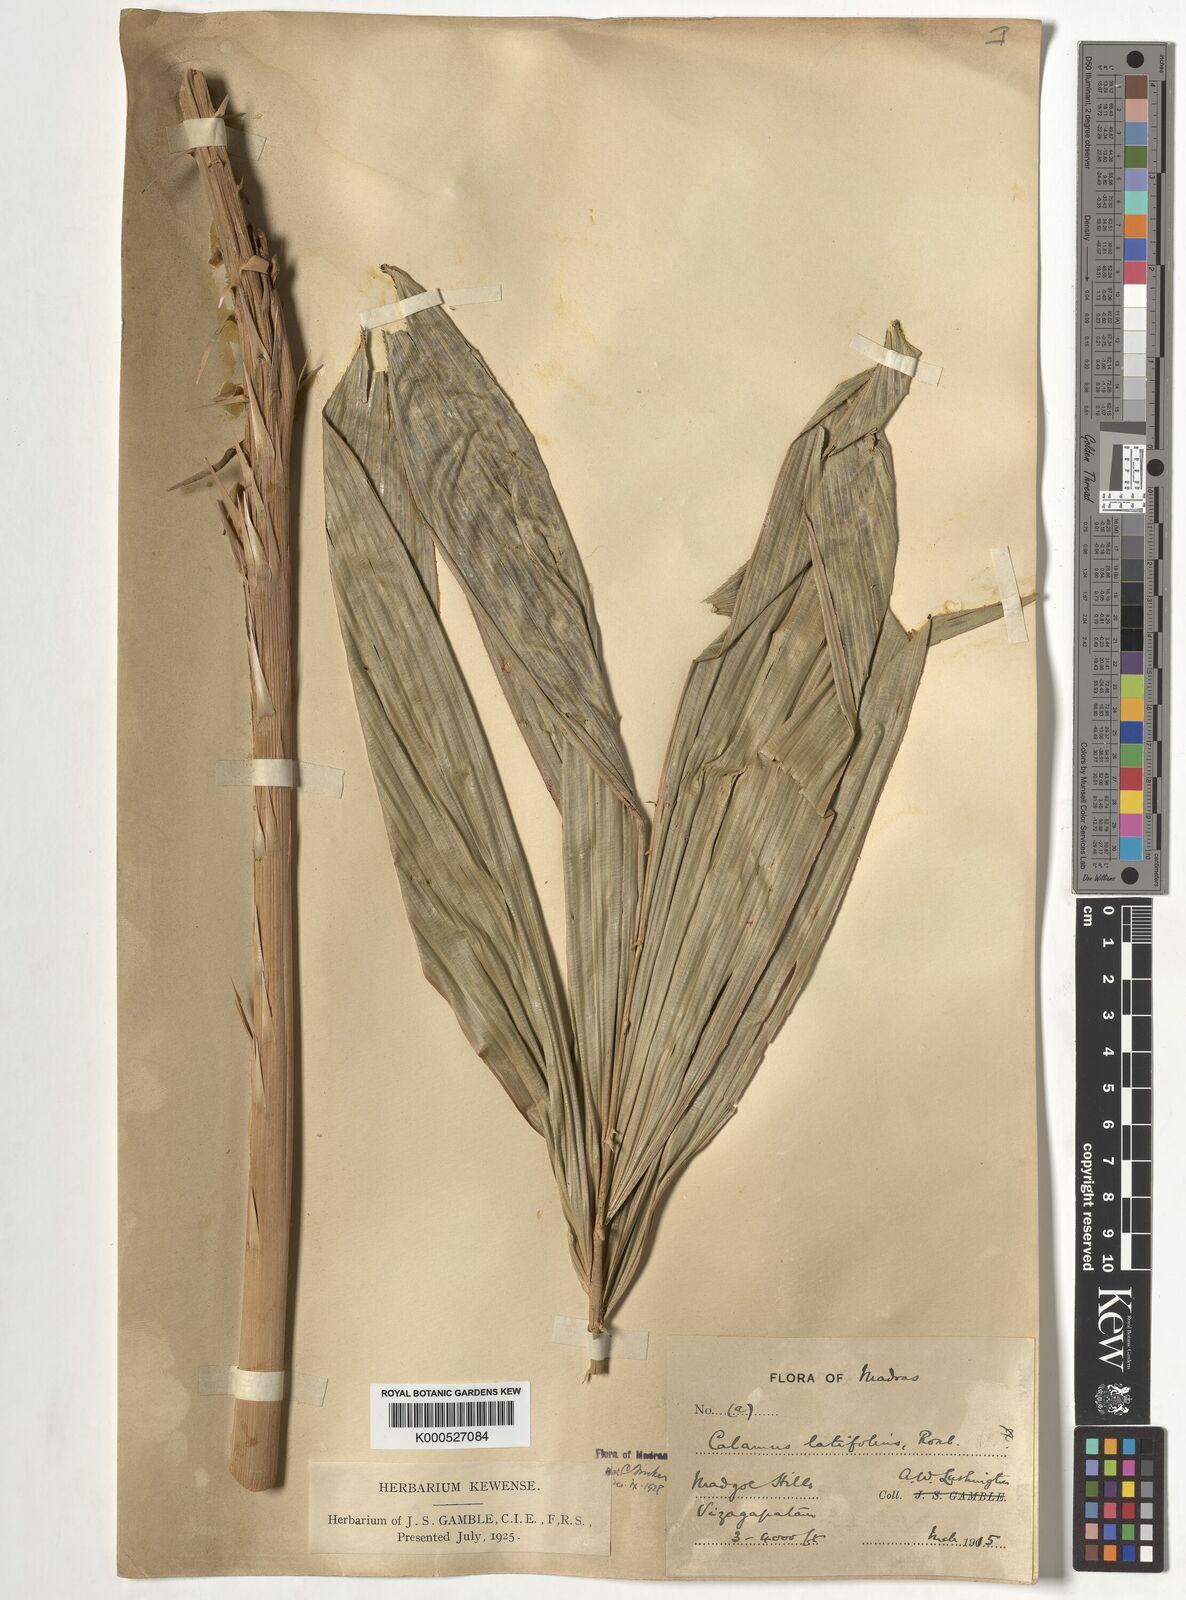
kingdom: Plantae
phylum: Tracheophyta
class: Liliopsida
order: Arecales
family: Arecaceae
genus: Calamus
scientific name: Calamus latifolius
